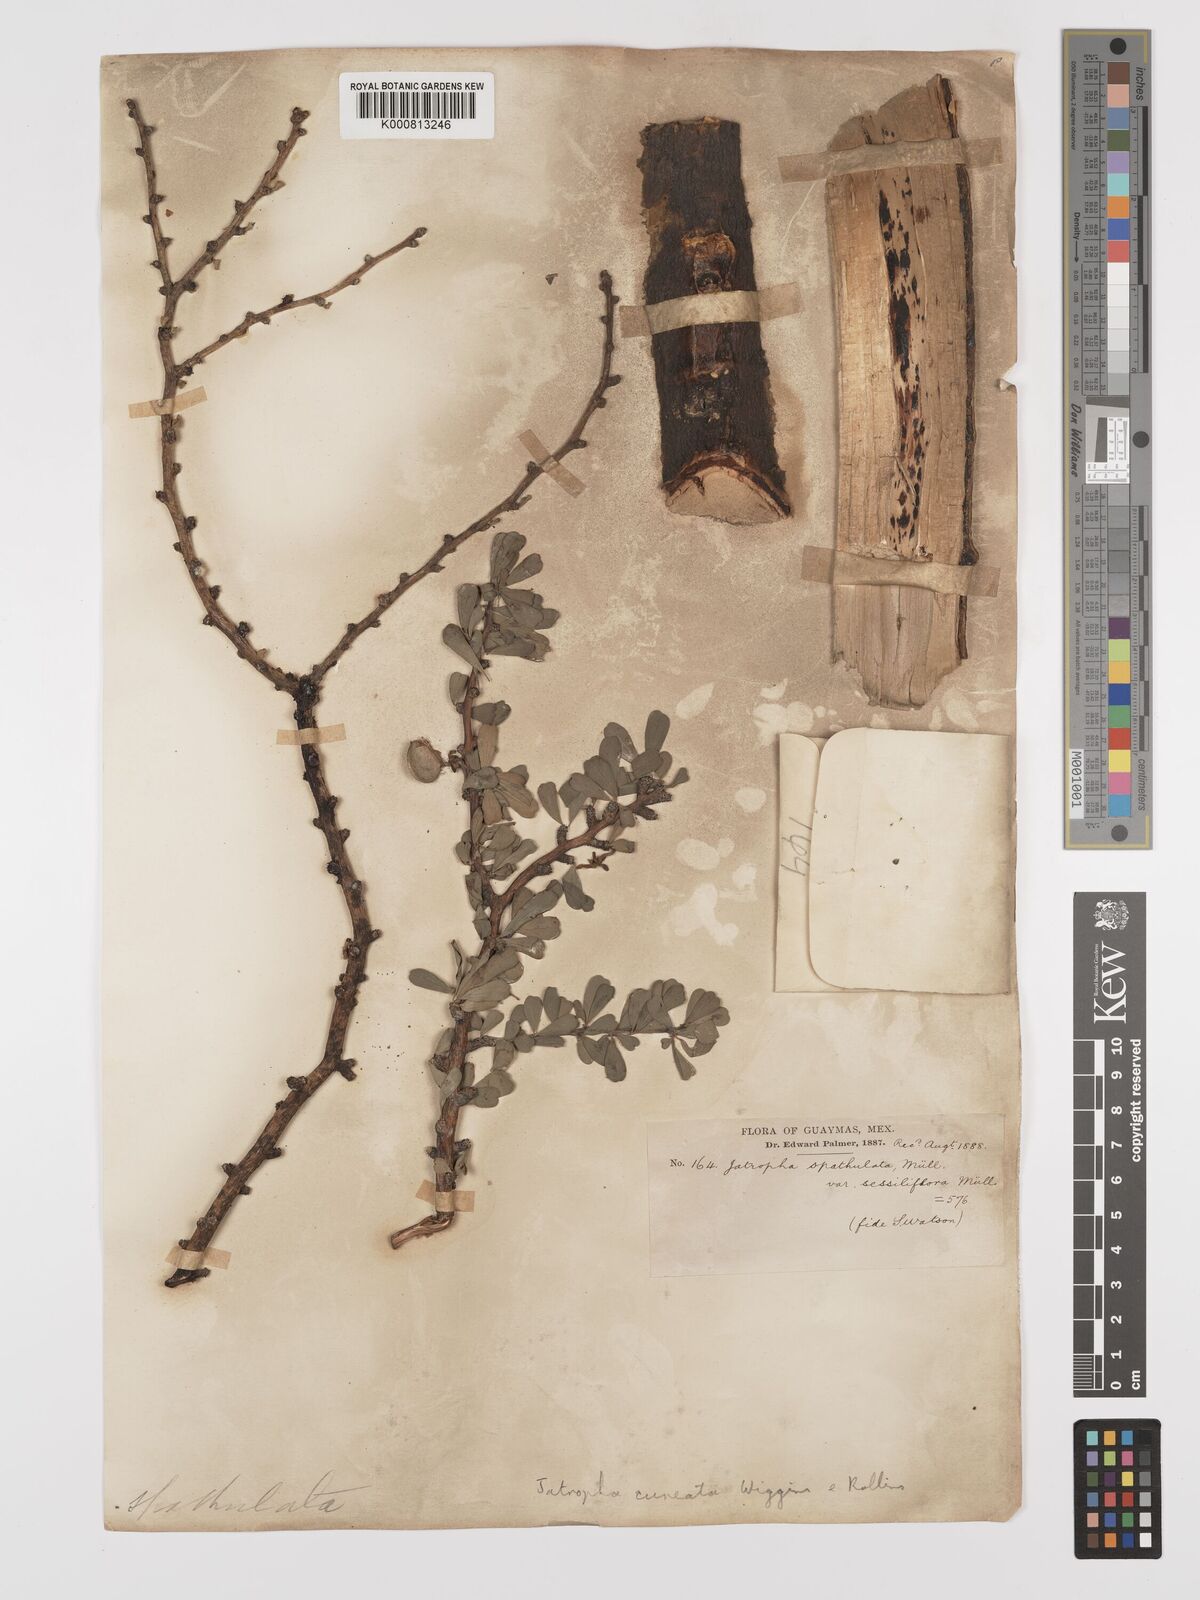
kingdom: Plantae
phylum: Tracheophyta
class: Magnoliopsida
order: Malpighiales
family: Euphorbiaceae
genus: Jatropha
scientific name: Jatropha cuneata
